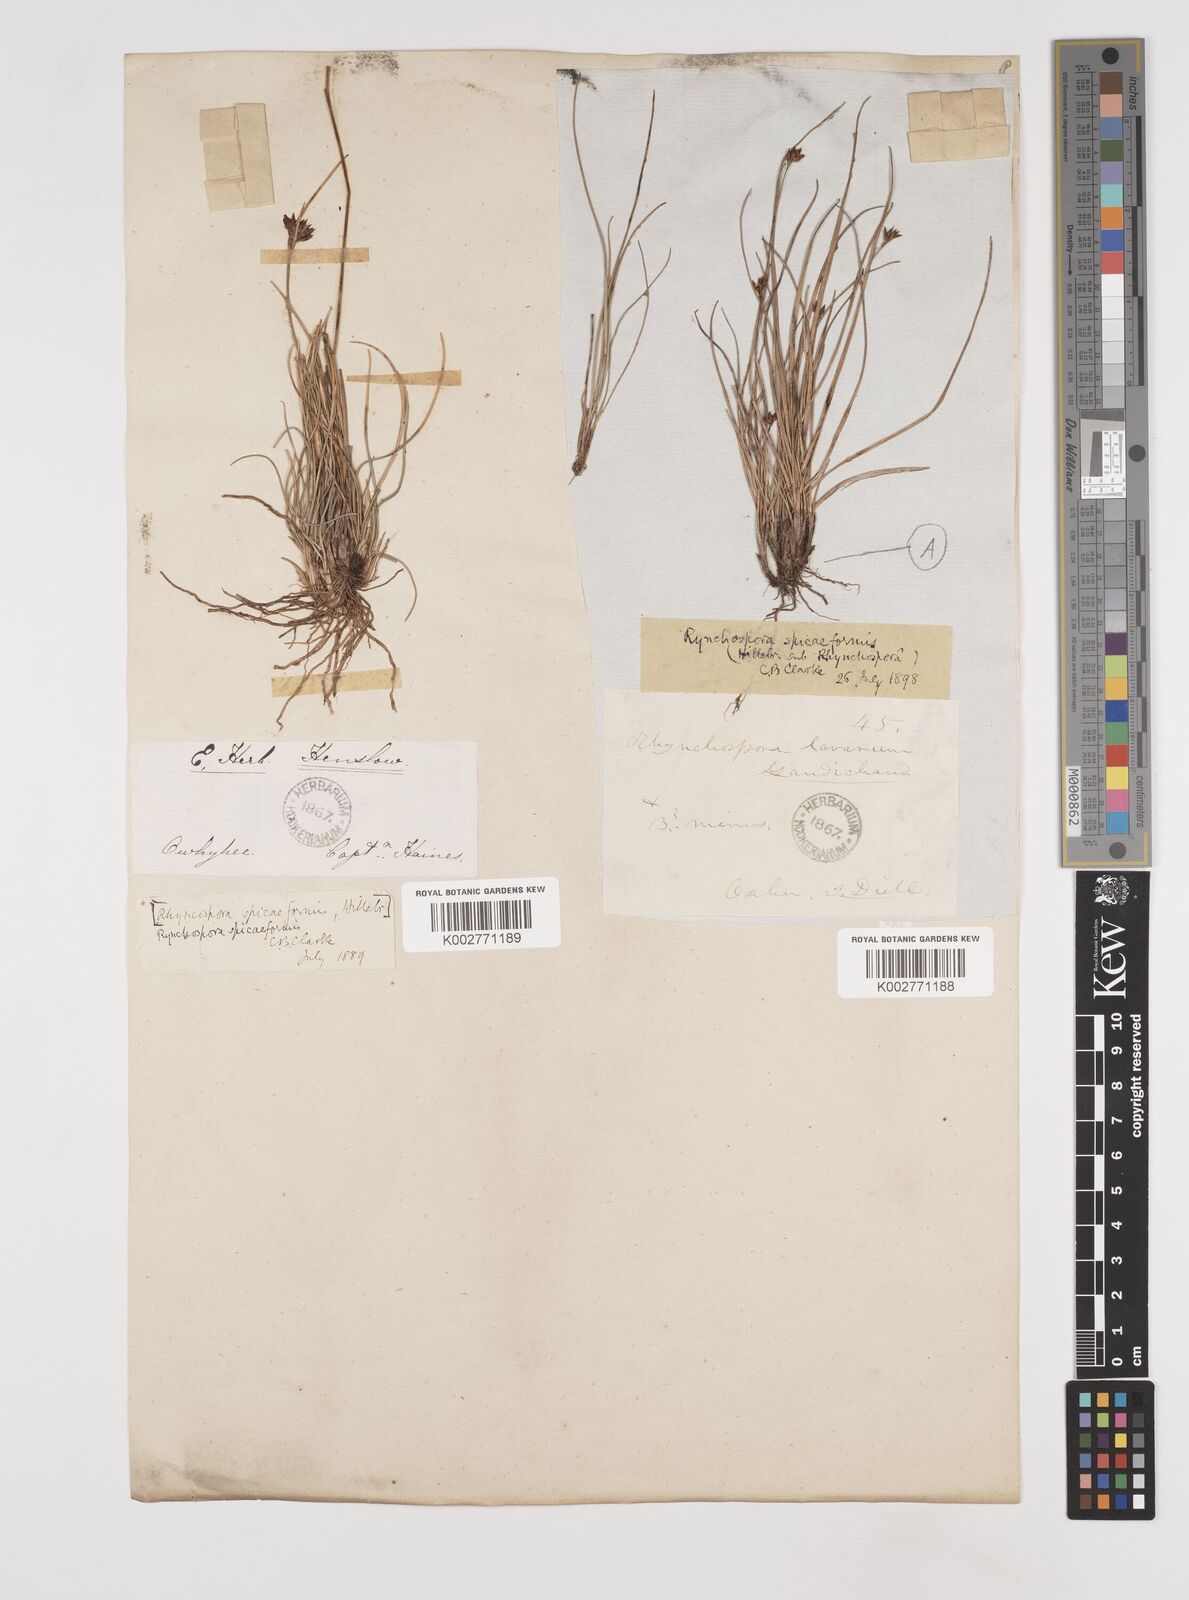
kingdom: Plantae
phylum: Tracheophyta
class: Liliopsida
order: Poales
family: Cyperaceae
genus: Rhynchospora
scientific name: Rhynchospora chinensis
